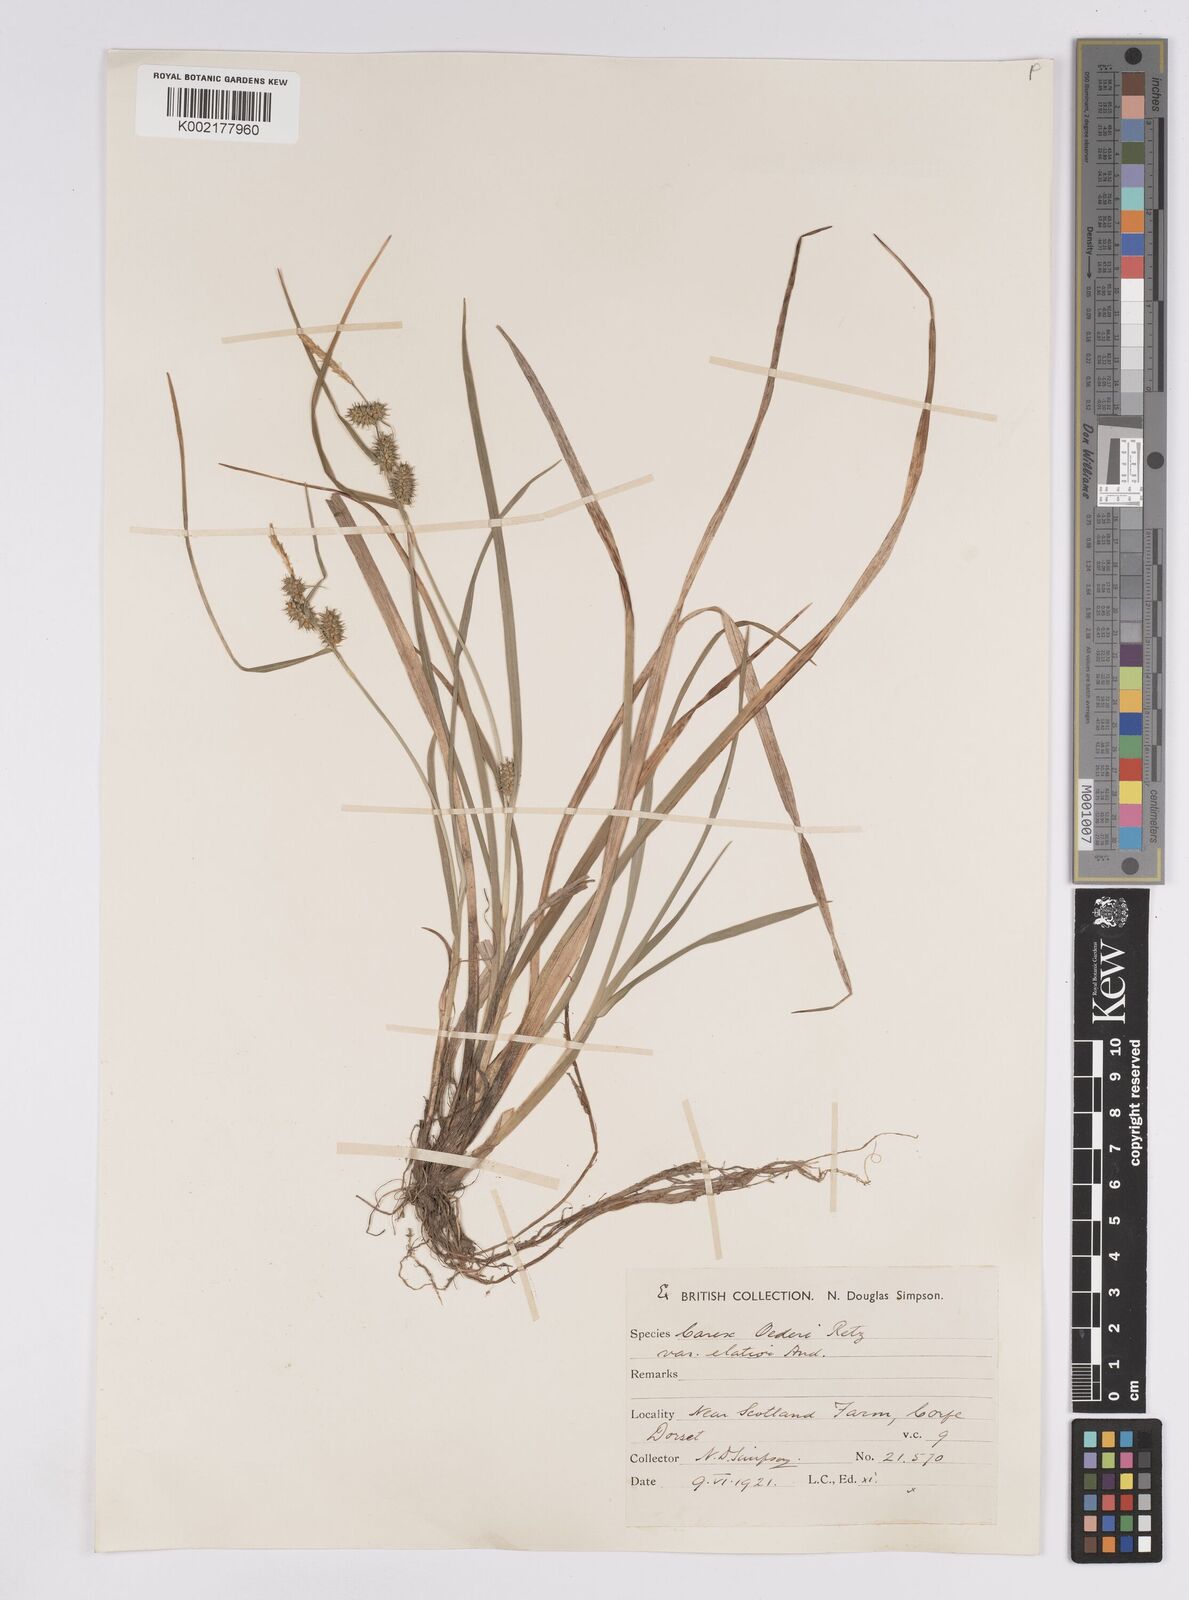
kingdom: Plantae
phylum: Tracheophyta
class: Liliopsida
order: Poales
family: Cyperaceae
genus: Carex
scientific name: Carex demissa
